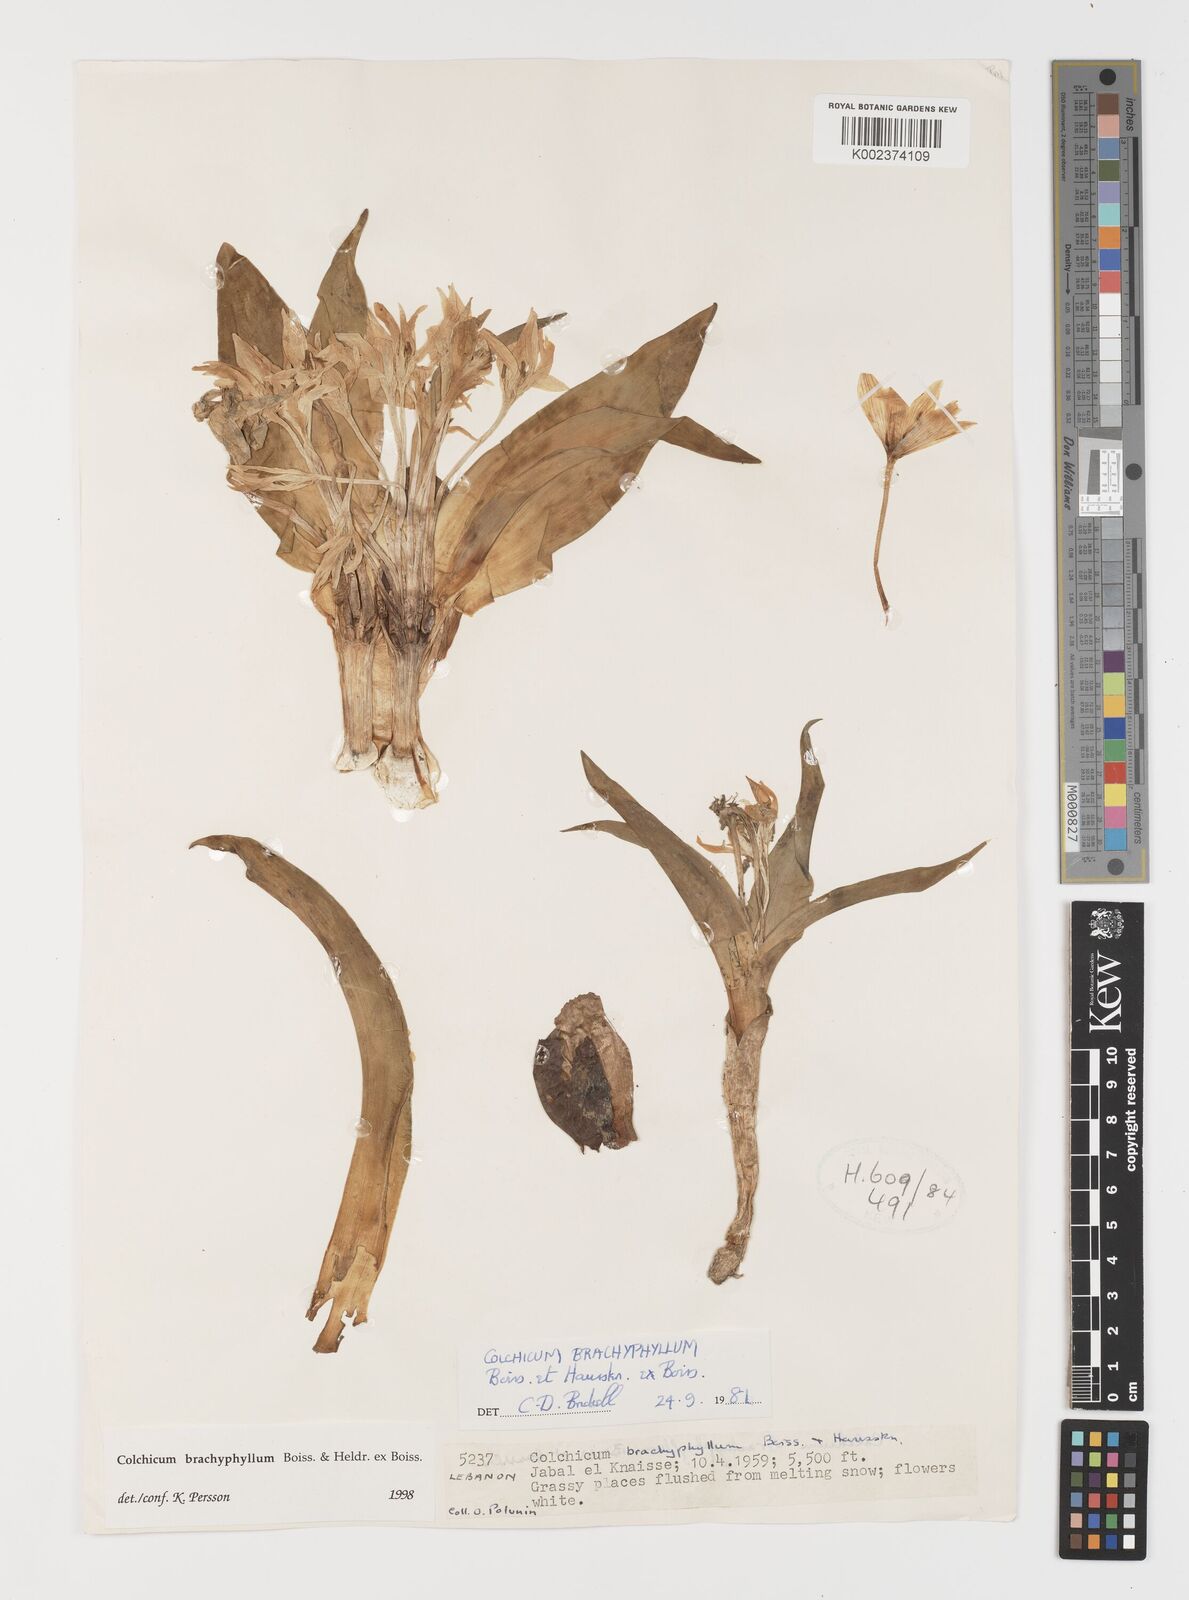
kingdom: Plantae
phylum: Tracheophyta
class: Liliopsida
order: Liliales
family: Colchicaceae
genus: Colchicum
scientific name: Colchicum szovitsii
